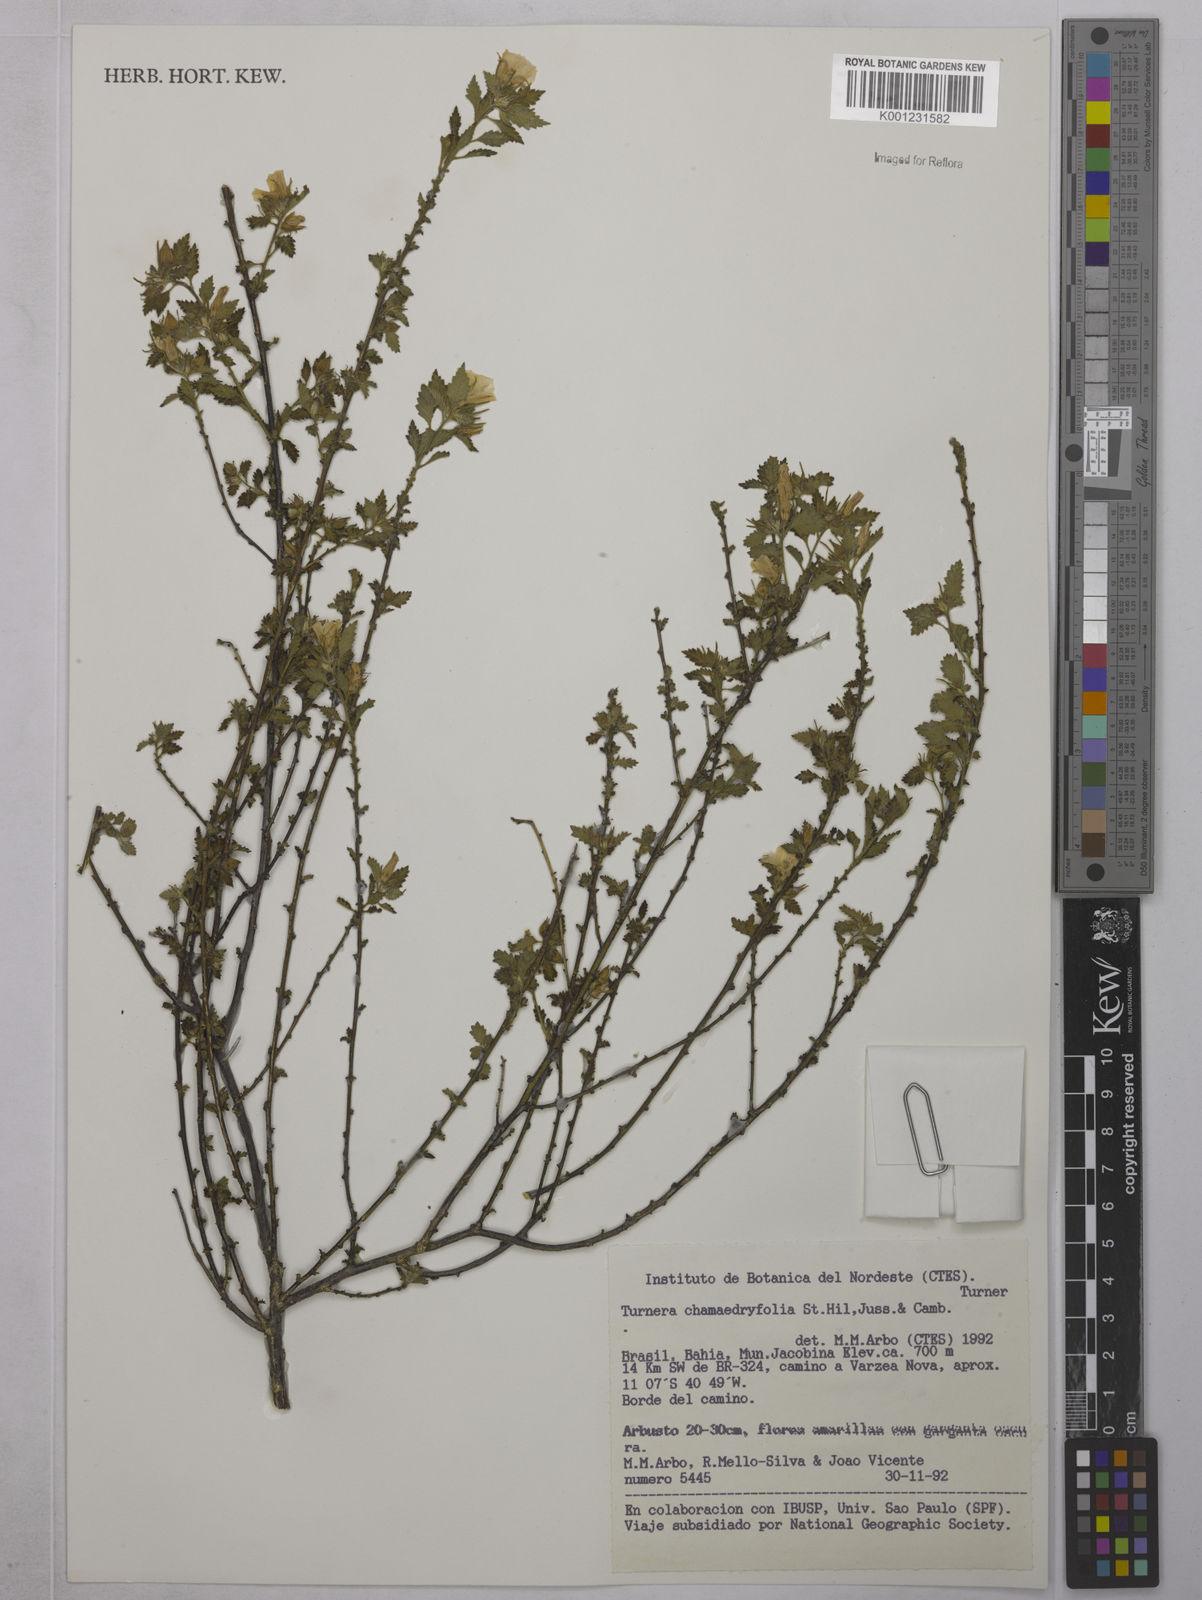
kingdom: Plantae
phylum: Tracheophyta
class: Magnoliopsida
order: Malpighiales
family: Turneraceae
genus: Turnera
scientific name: Turnera chamaedrifolia
